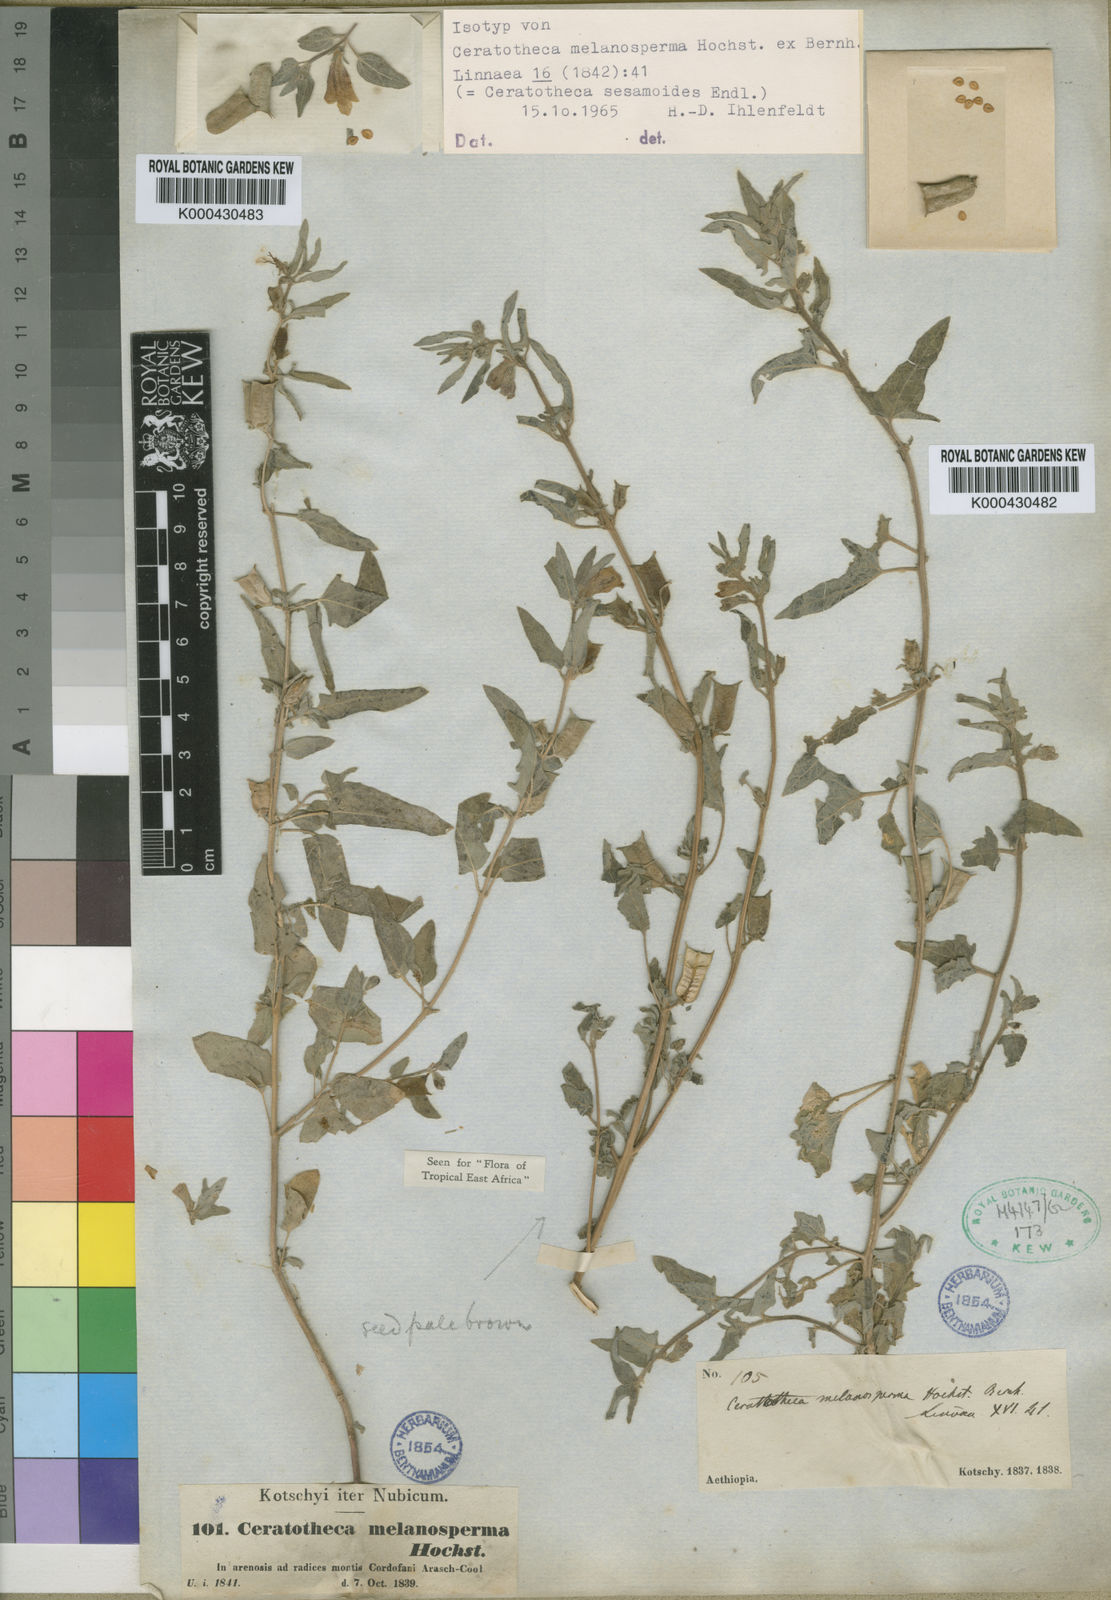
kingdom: Plantae
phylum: Tracheophyta
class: Magnoliopsida
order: Lamiales
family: Pedaliaceae
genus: Sesamum
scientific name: Sesamum sesamoides
